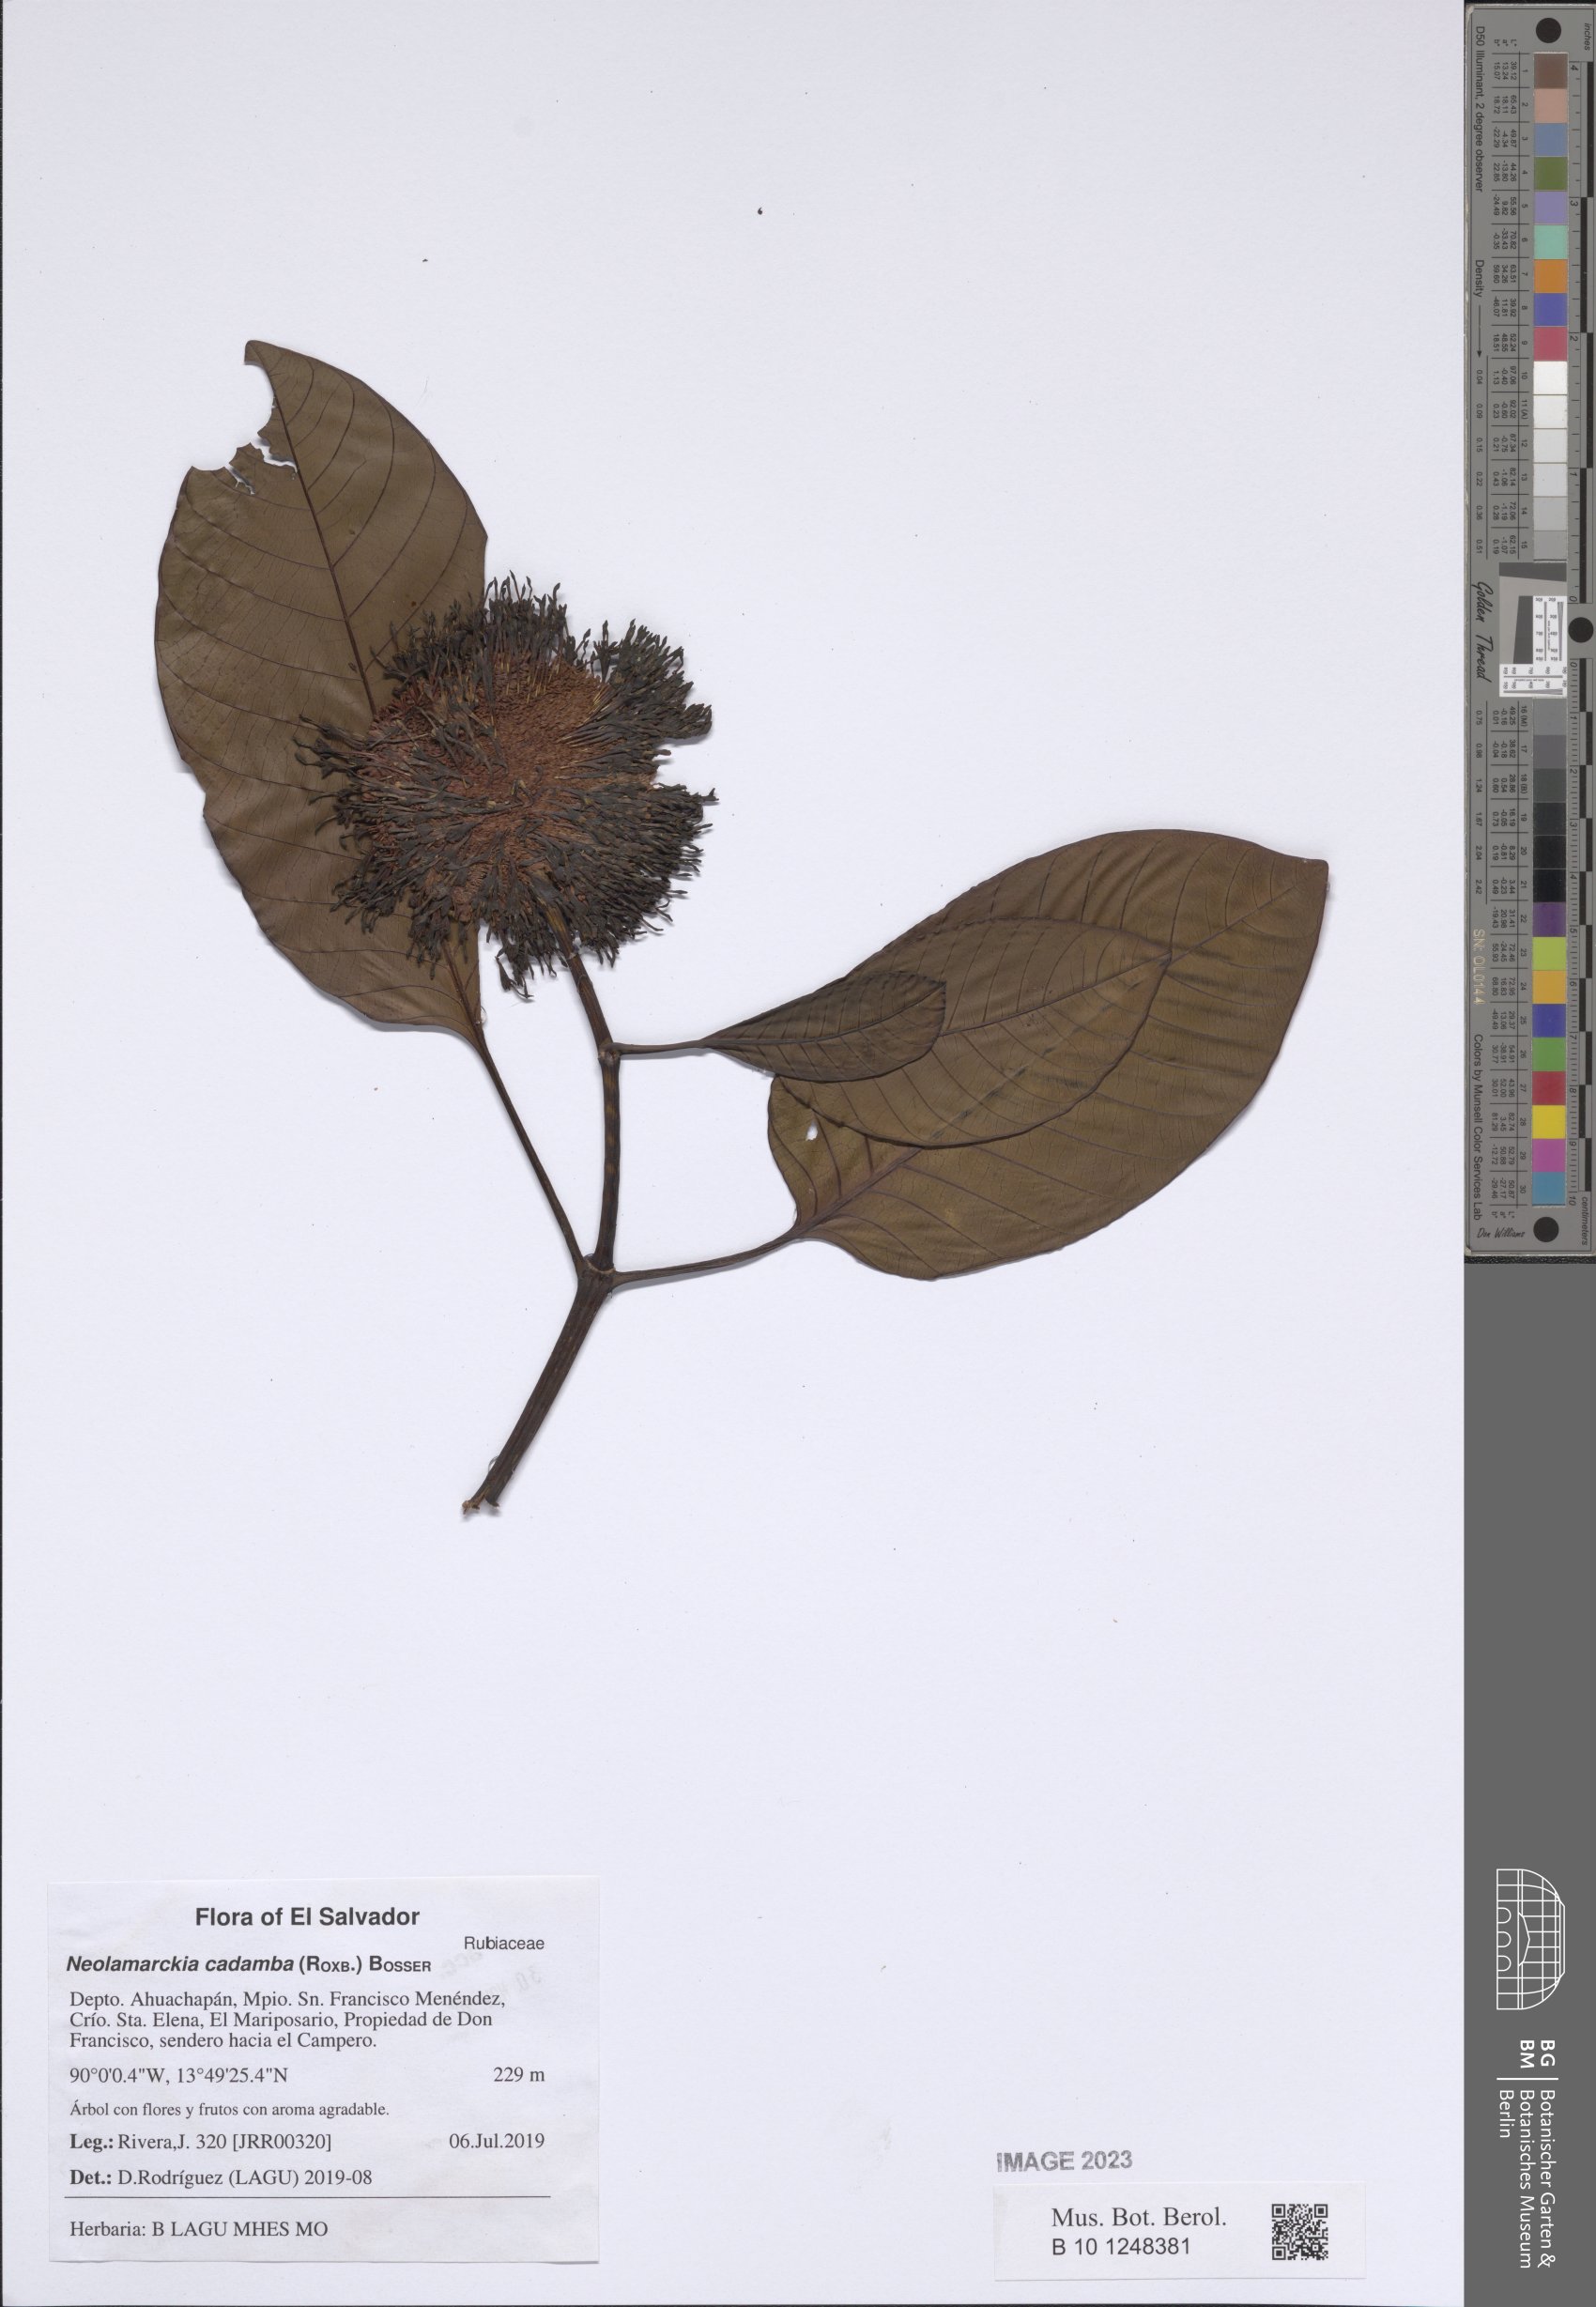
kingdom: Plantae
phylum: Tracheophyta
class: Magnoliopsida
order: Gentianales
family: Rubiaceae
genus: Neolamarckia
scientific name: Neolamarckia cadamba
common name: Leichhardt-pine
